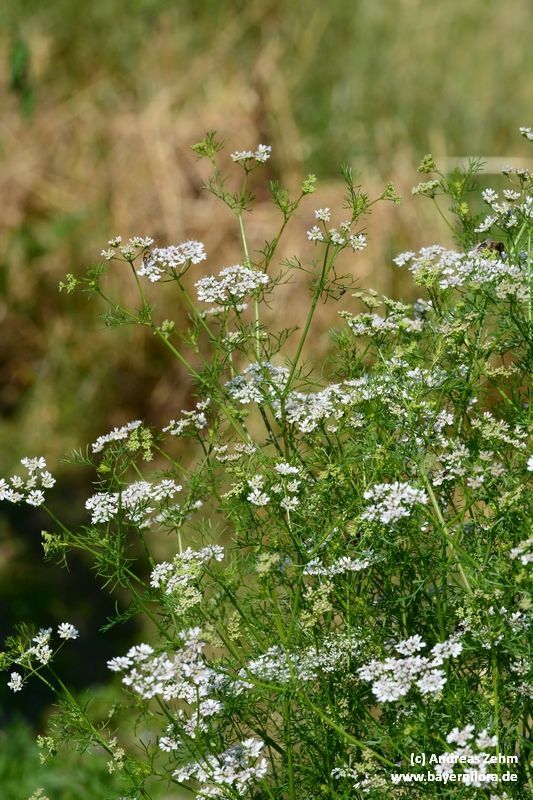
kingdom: Plantae
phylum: Tracheophyta
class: Magnoliopsida
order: Apiales
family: Apiaceae
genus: Coriandrum
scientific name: Coriandrum sativum
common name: Coriander
